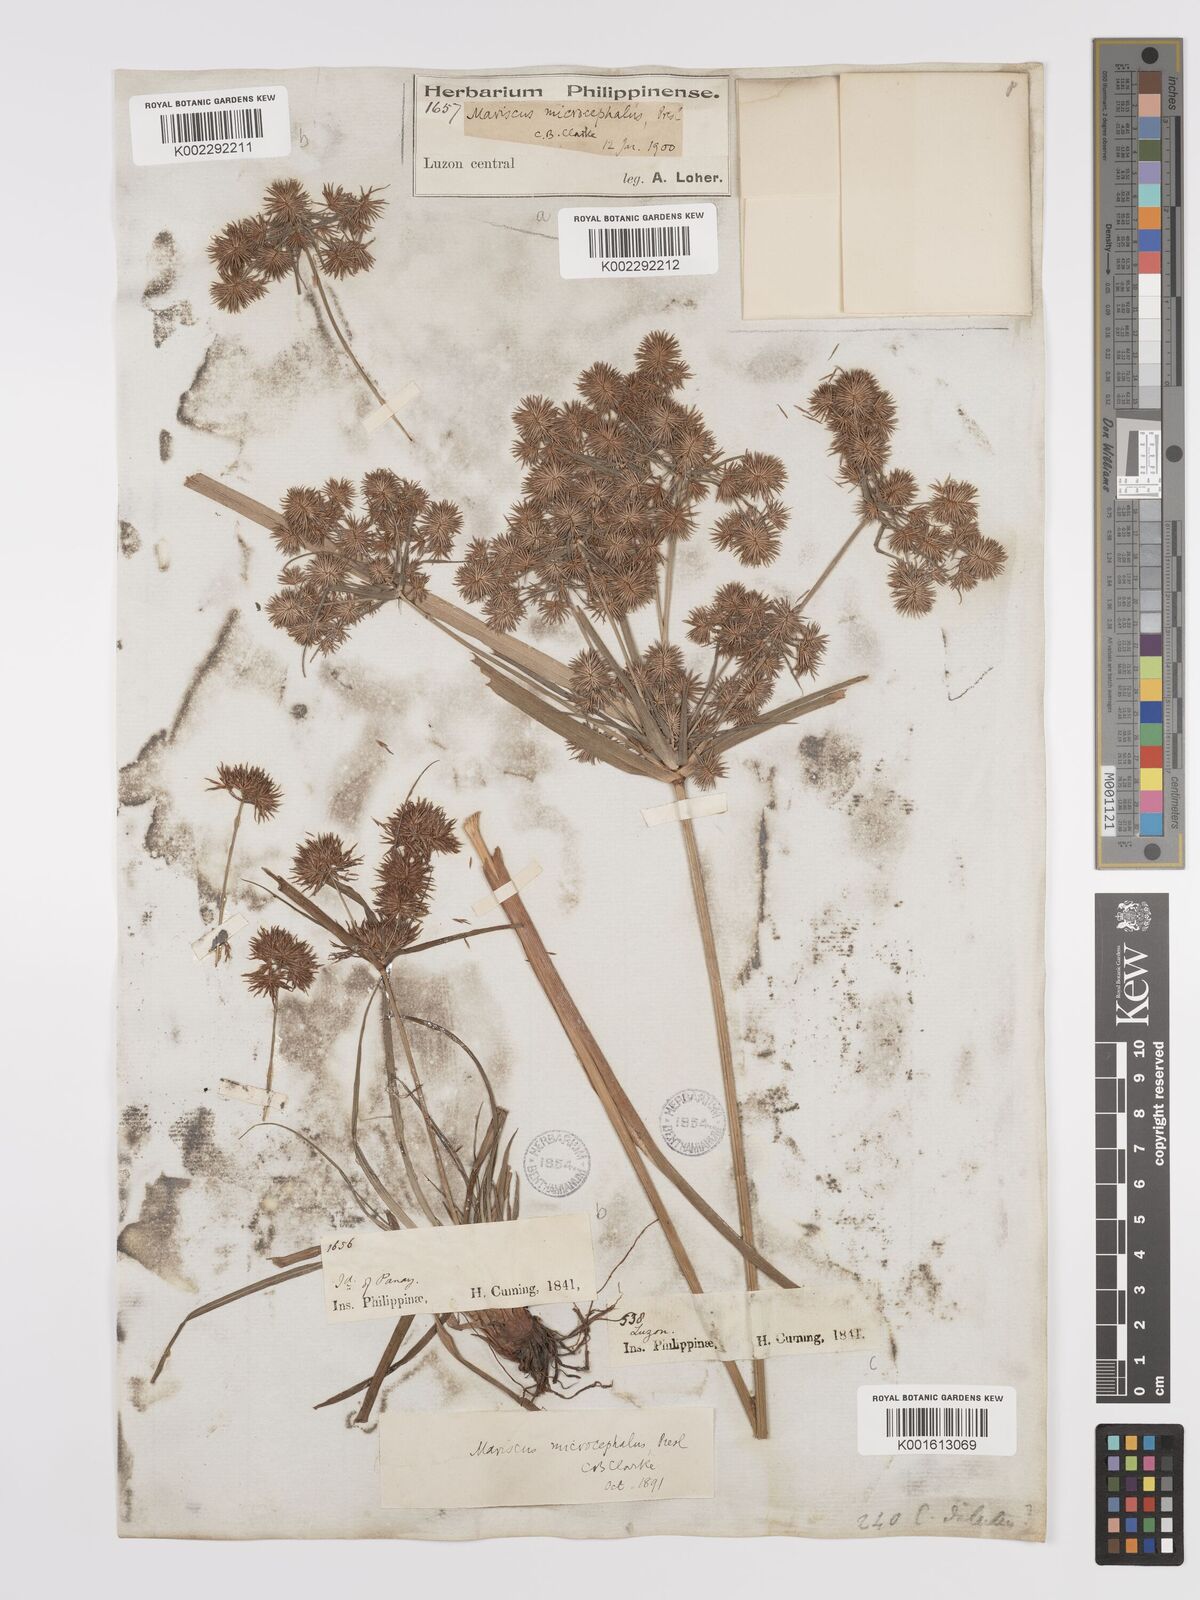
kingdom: Plantae
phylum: Tracheophyta
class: Liliopsida
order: Poales
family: Cyperaceae
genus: Cyperus
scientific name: Cyperus compactus
